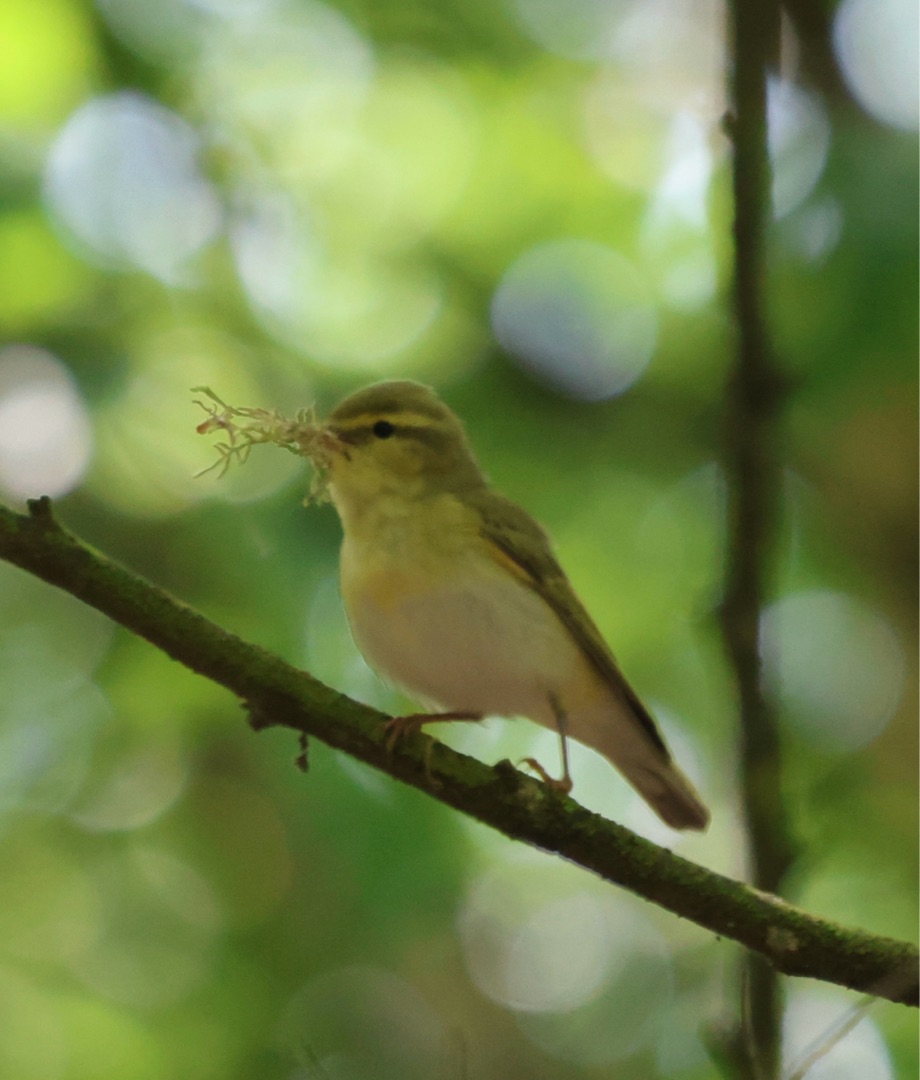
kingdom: Animalia
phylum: Chordata
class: Aves
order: Passeriformes
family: Phylloscopidae
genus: Phylloscopus
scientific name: Phylloscopus sibillatrix
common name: Skovsanger
